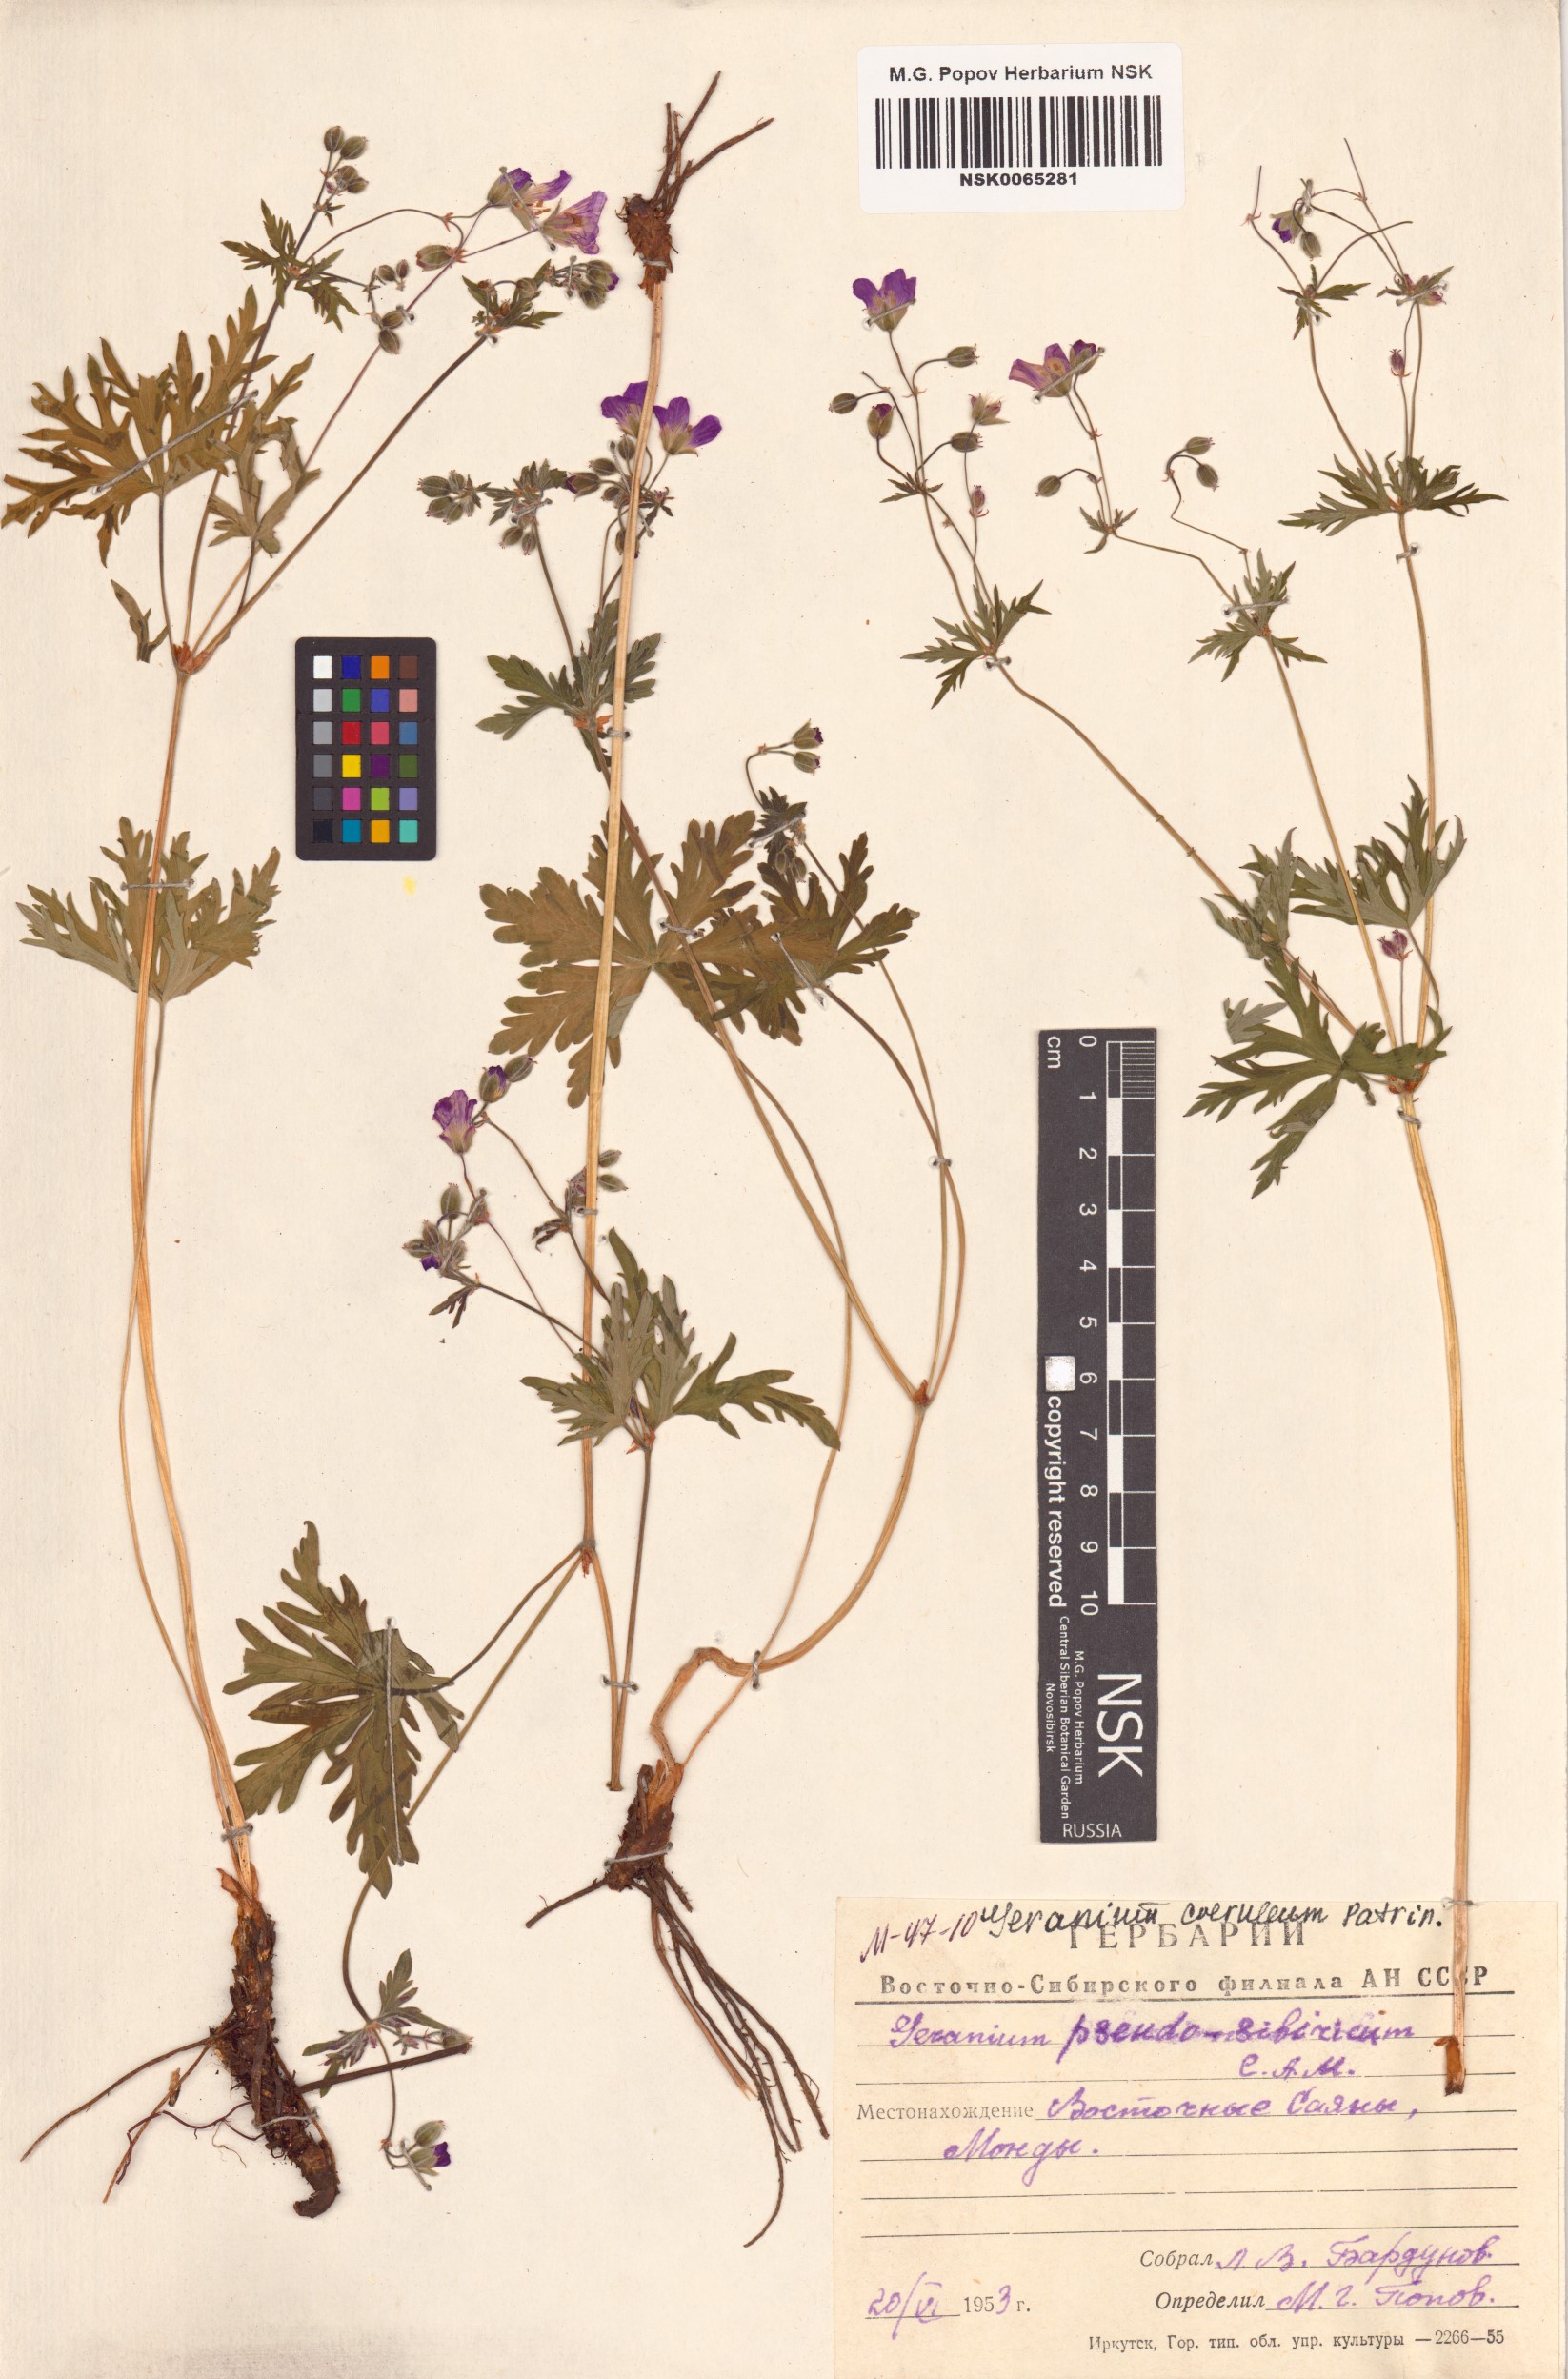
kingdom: Plantae
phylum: Tracheophyta
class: Magnoliopsida
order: Geraniales
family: Geraniaceae
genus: Geranium
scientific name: Geranium pseudosibiricum
